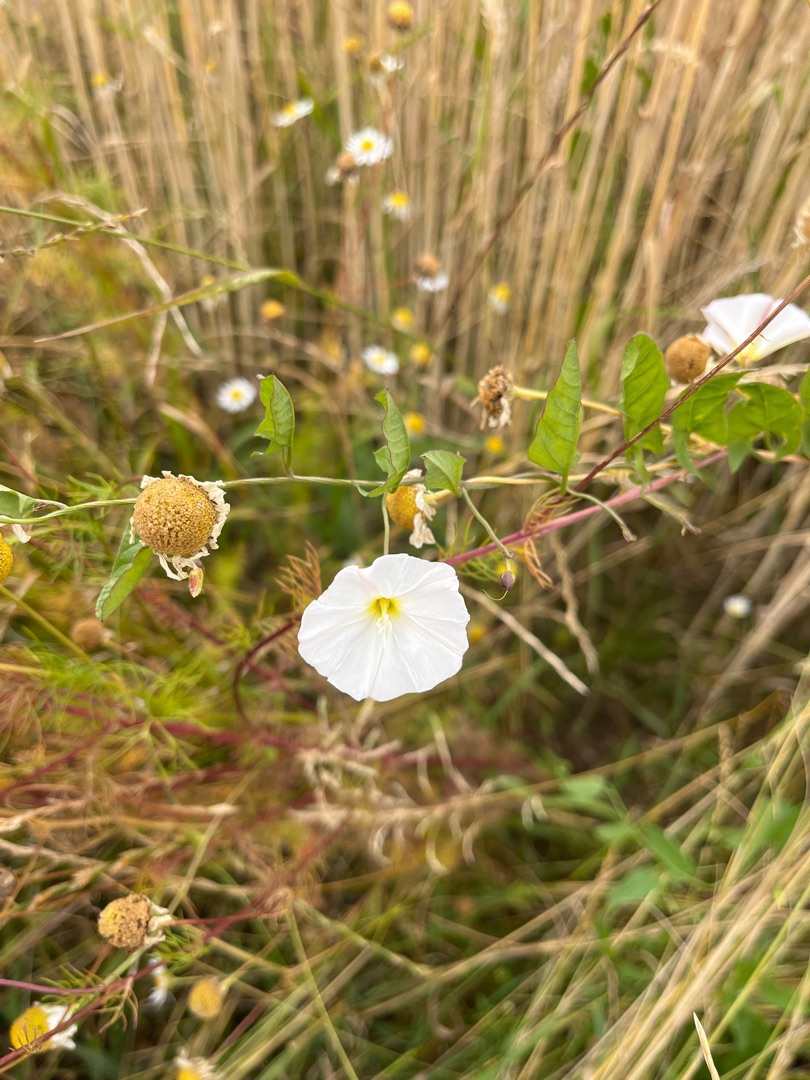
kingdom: Plantae
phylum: Tracheophyta
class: Magnoliopsida
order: Solanales
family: Convolvulaceae
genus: Convolvulus
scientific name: Convolvulus arvensis
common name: Ager-snerle
